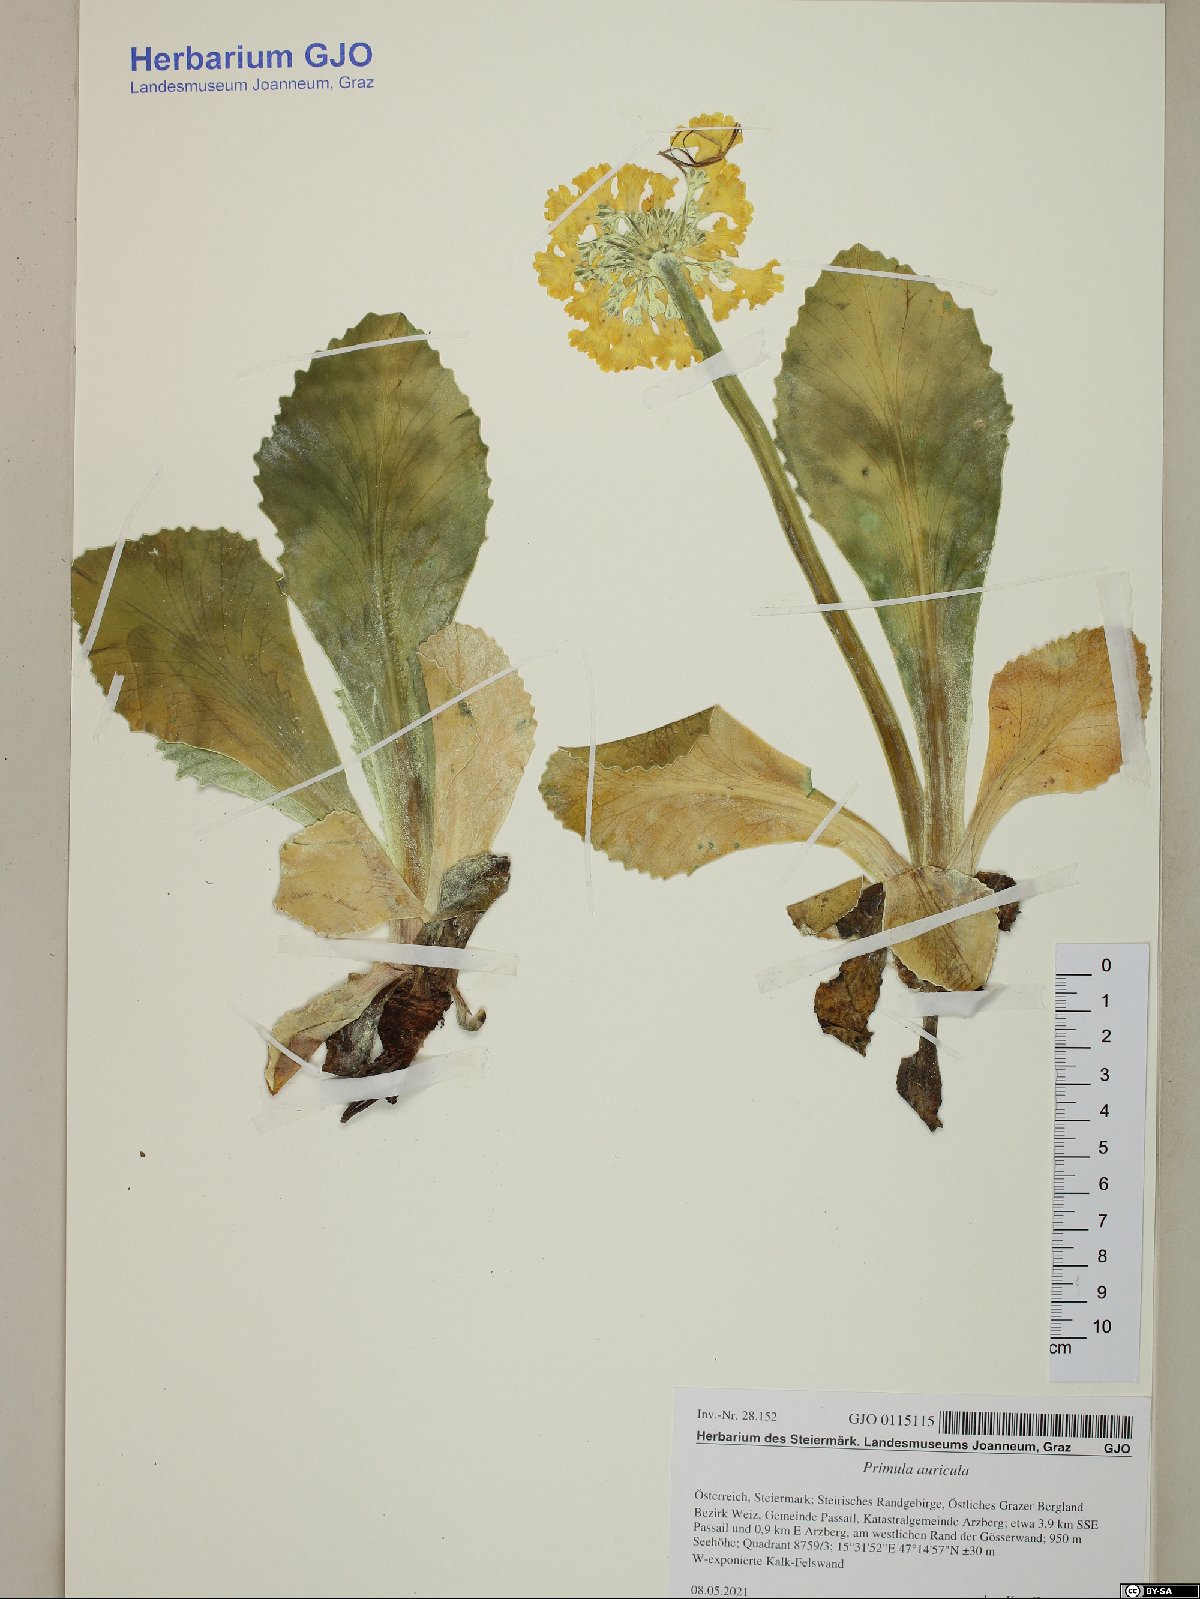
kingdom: Plantae
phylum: Tracheophyta
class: Magnoliopsida
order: Ericales
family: Primulaceae
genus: Primula
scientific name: Primula auricula
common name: Auricula
